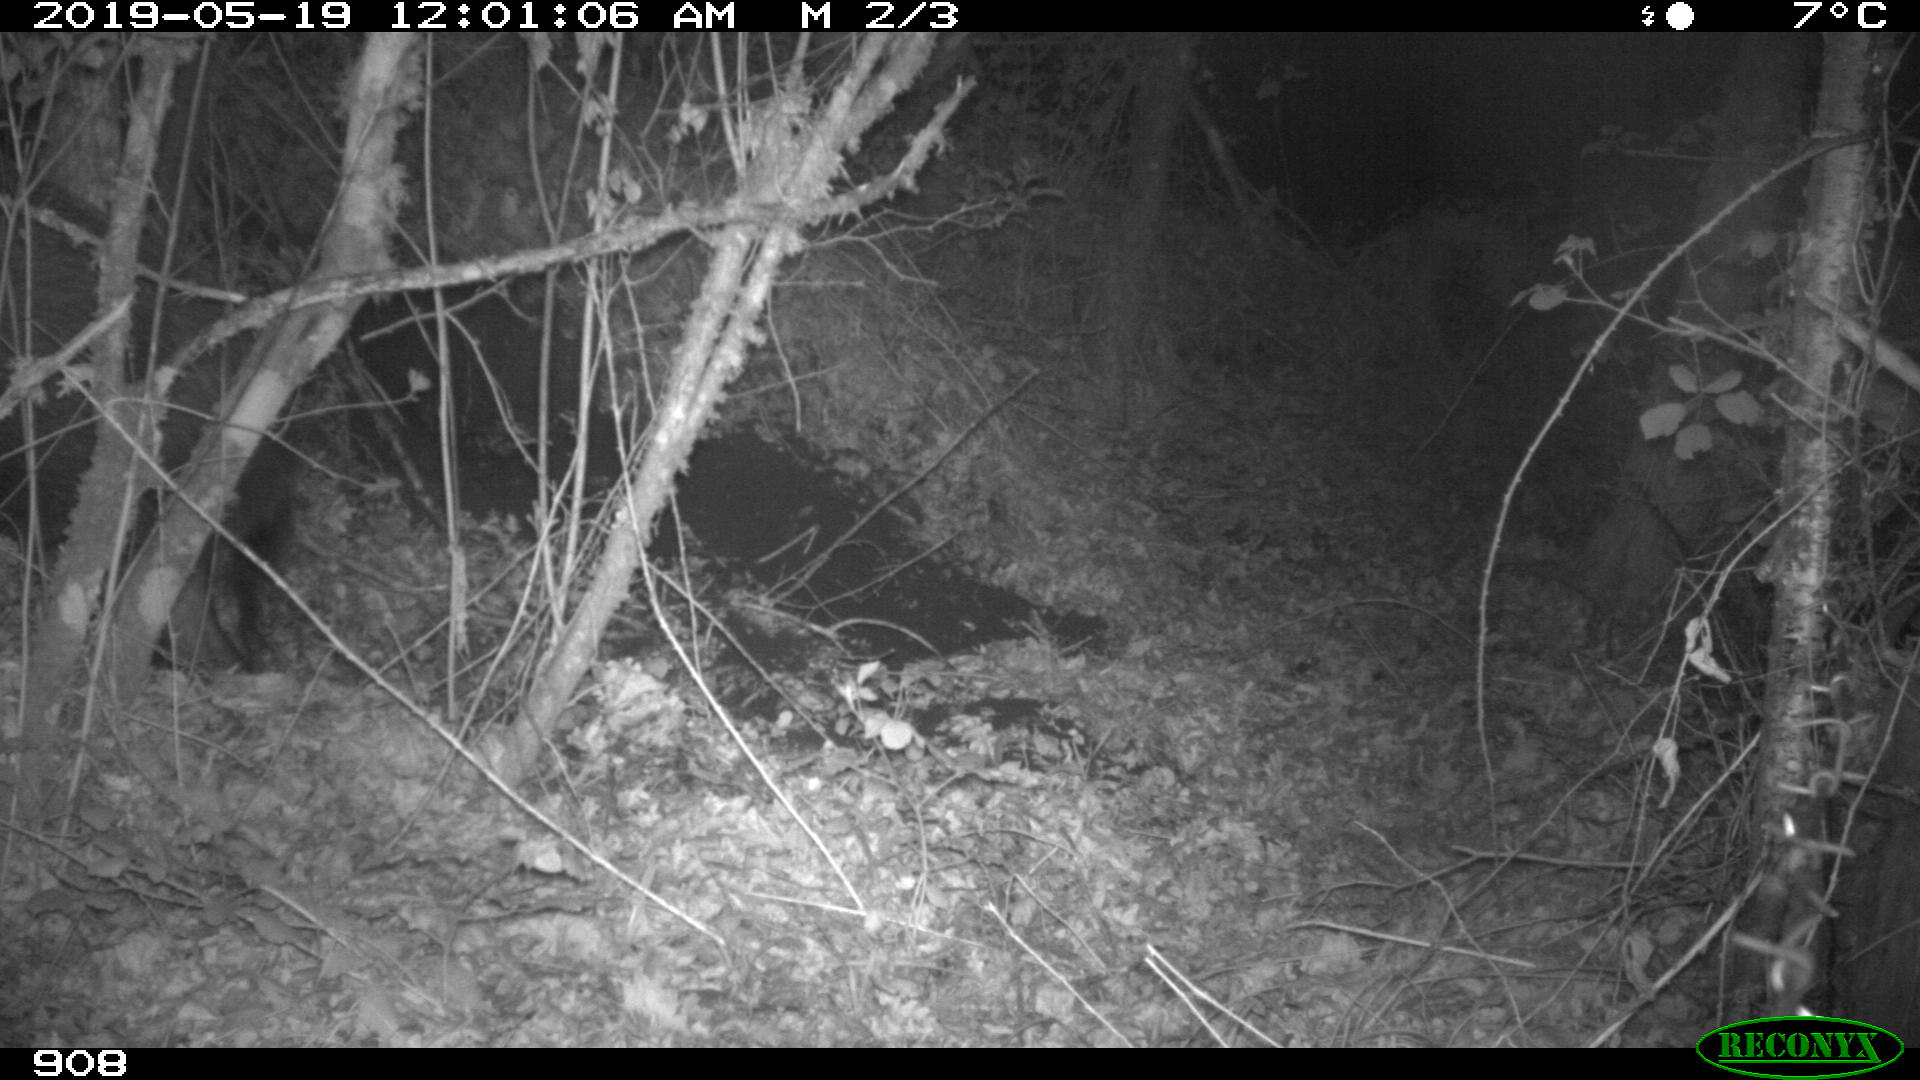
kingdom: Animalia
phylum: Chordata
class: Mammalia
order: Artiodactyla
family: Suidae
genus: Sus
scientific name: Sus scrofa
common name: Wild boar
